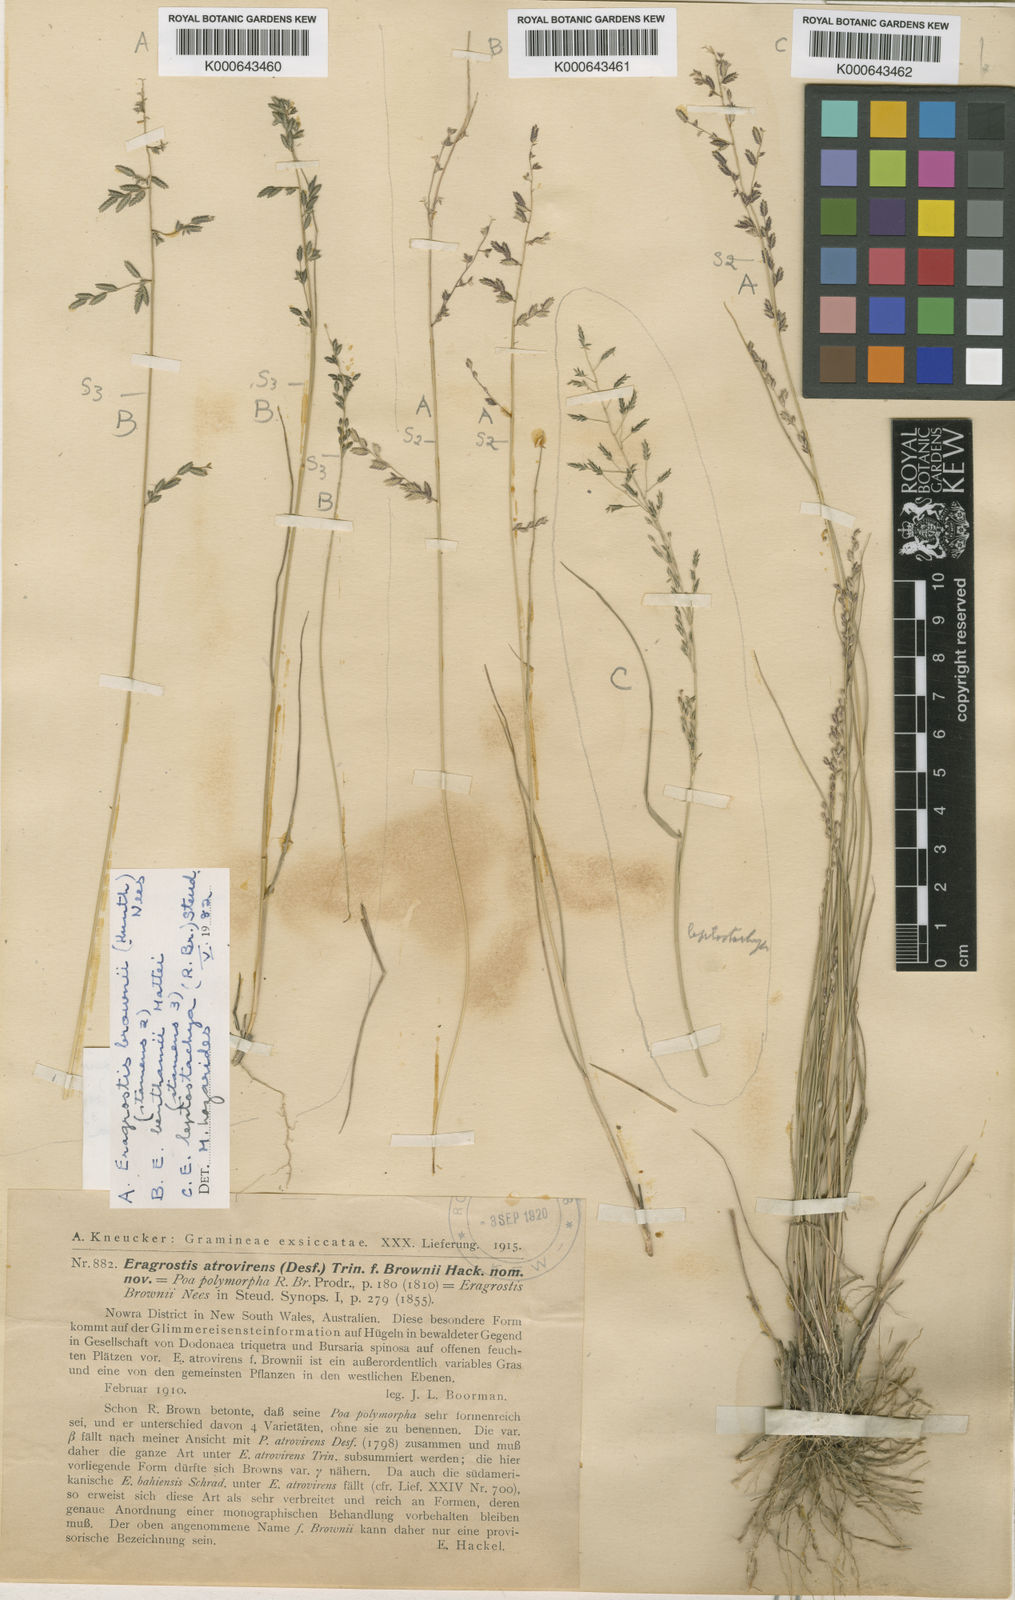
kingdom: Plantae
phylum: Tracheophyta
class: Liliopsida
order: Poales
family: Poaceae
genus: Eragrostis
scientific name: Eragrostis brownii
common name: Lovegrass
